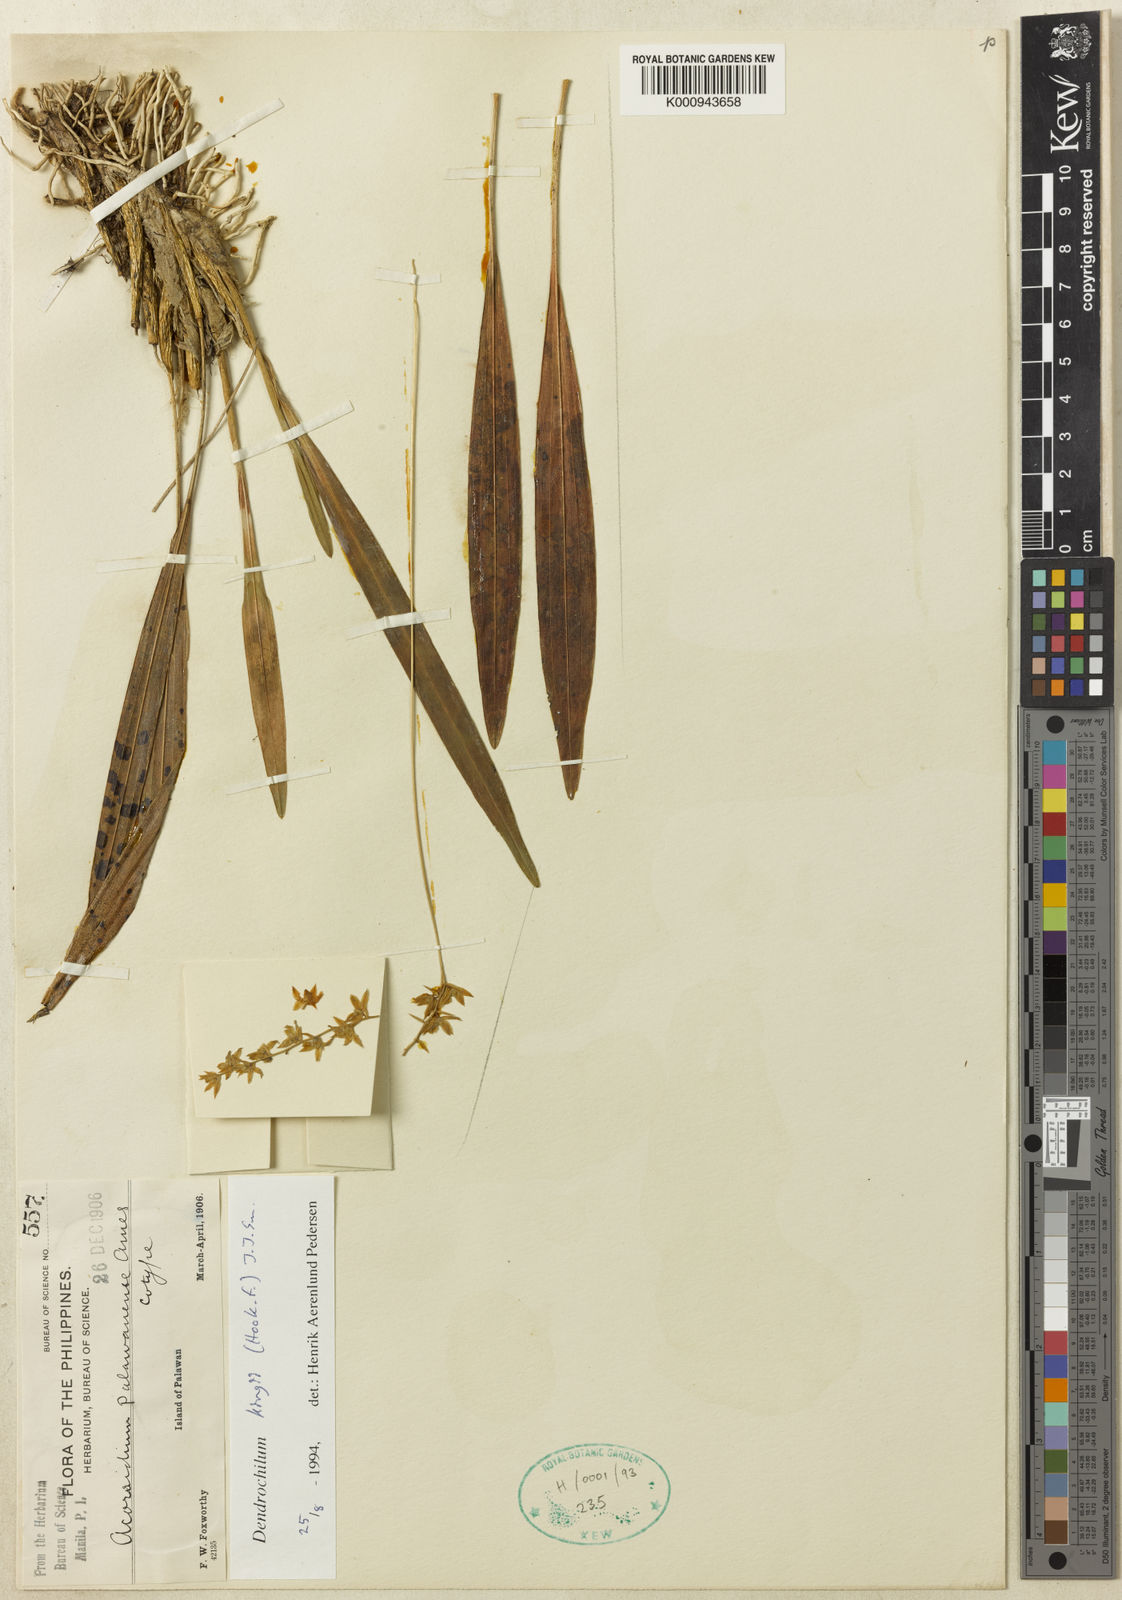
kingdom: Plantae
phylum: Tracheophyta
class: Liliopsida
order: Asparagales
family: Orchidaceae
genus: Coelogyne
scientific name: Coelogyne bigibbosa
